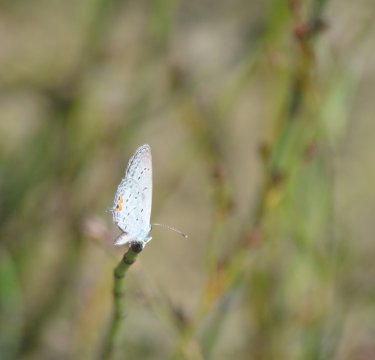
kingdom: Animalia
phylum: Arthropoda
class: Insecta
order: Lepidoptera
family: Lycaenidae
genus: Elkalyce
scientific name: Elkalyce comyntas
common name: Eastern Tailed-Blue
